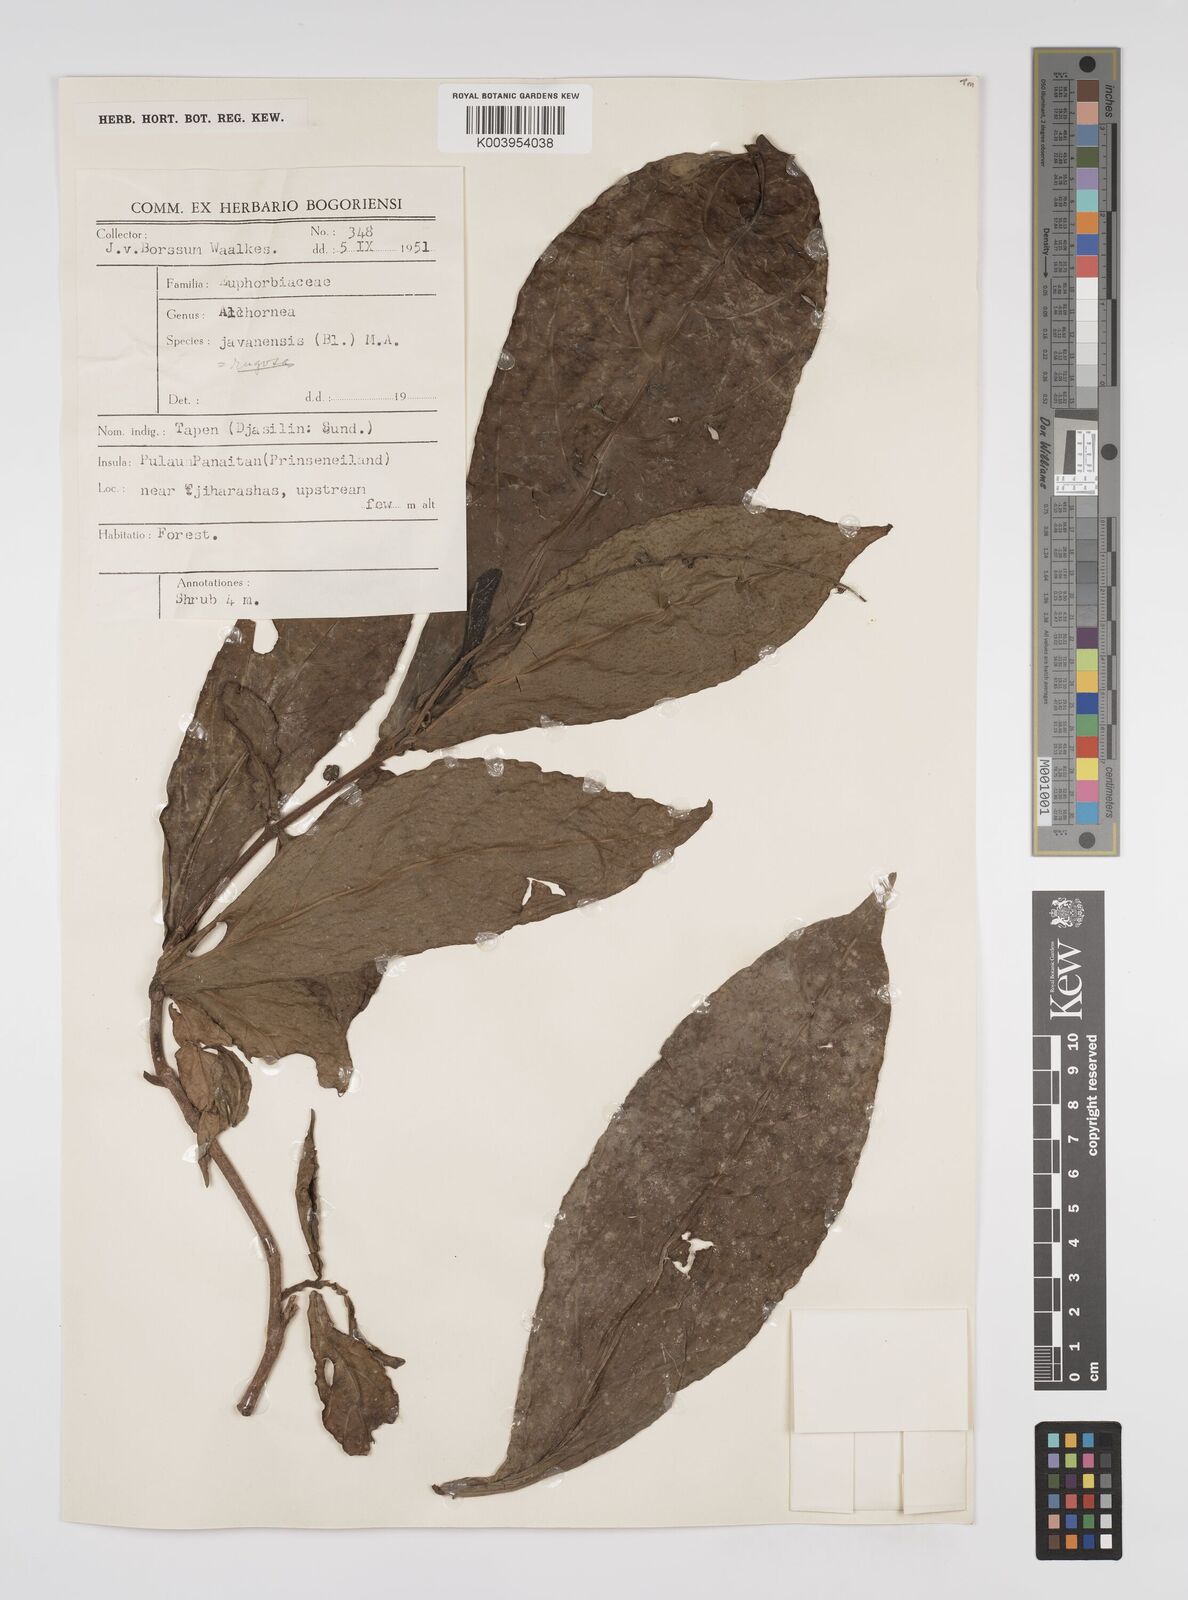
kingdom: Plantae
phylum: Tracheophyta
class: Magnoliopsida
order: Malpighiales
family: Euphorbiaceae
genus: Alchornea
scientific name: Alchornea rugosa
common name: Alchorntree
